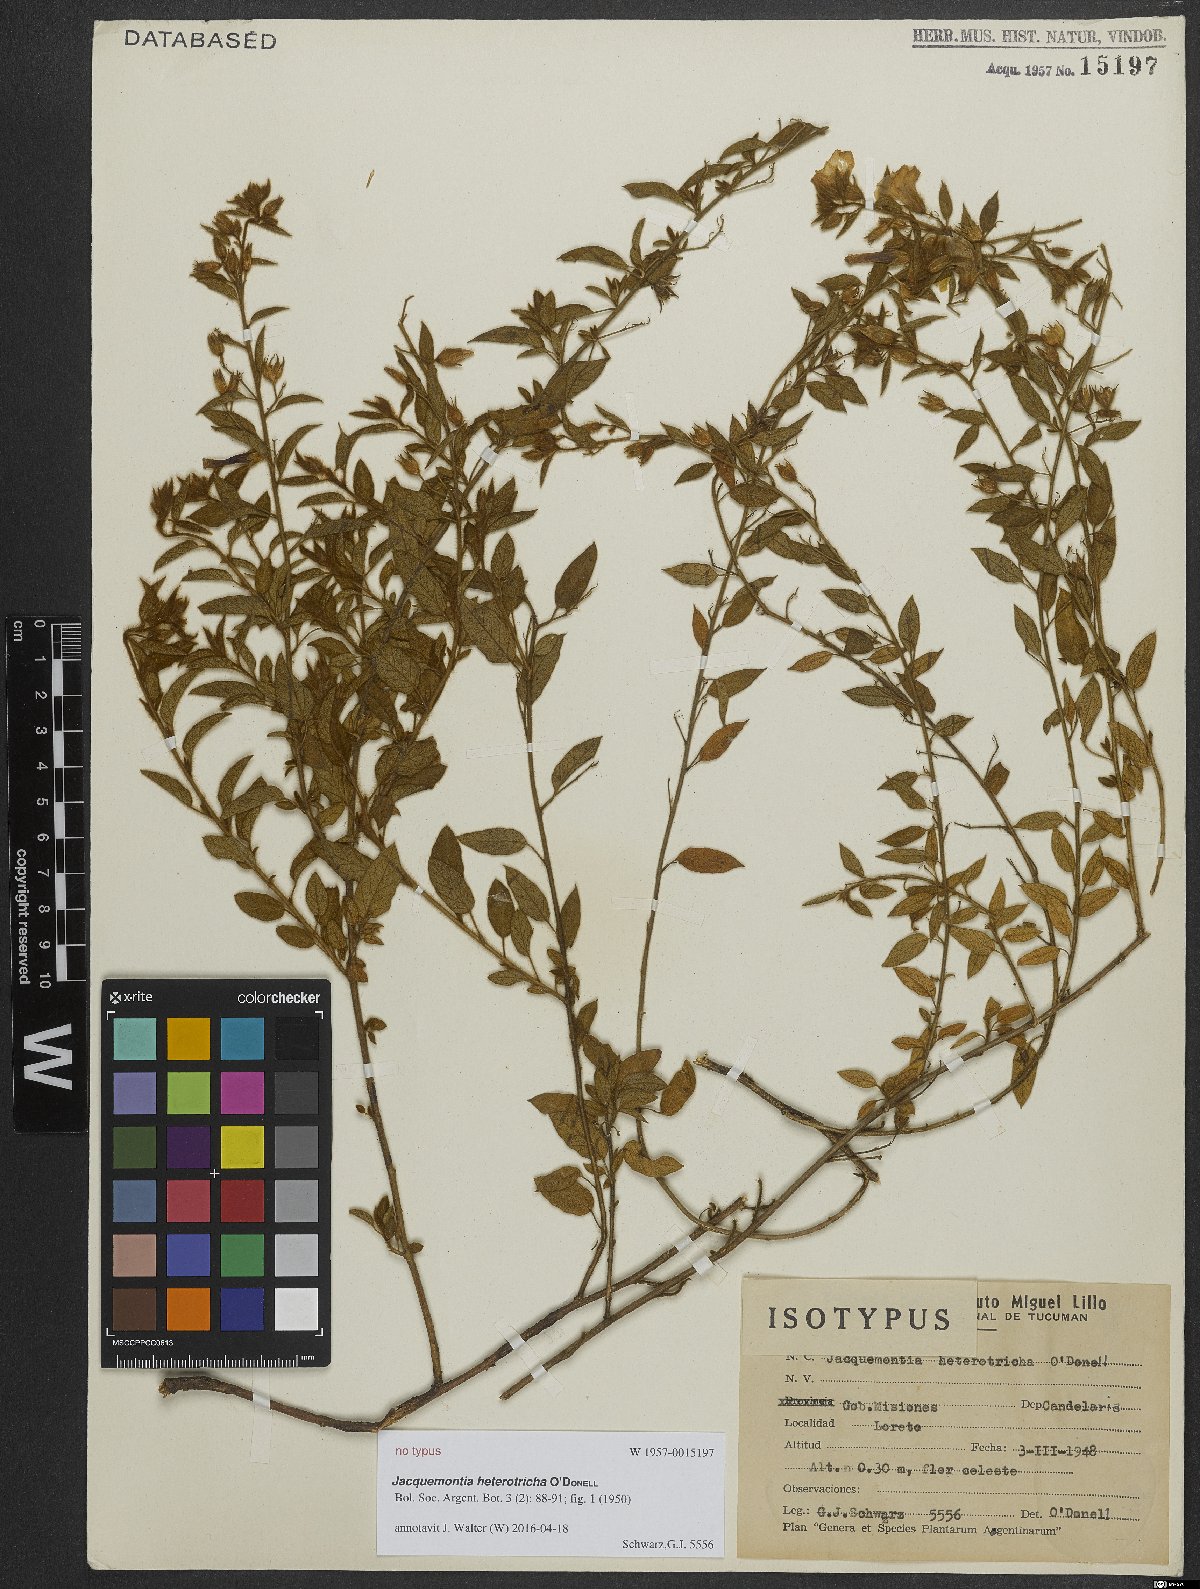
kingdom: Plantae
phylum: Tracheophyta
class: Magnoliopsida
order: Solanales
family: Convolvulaceae
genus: Jacquemontia
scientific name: Jacquemontia heterotricha
